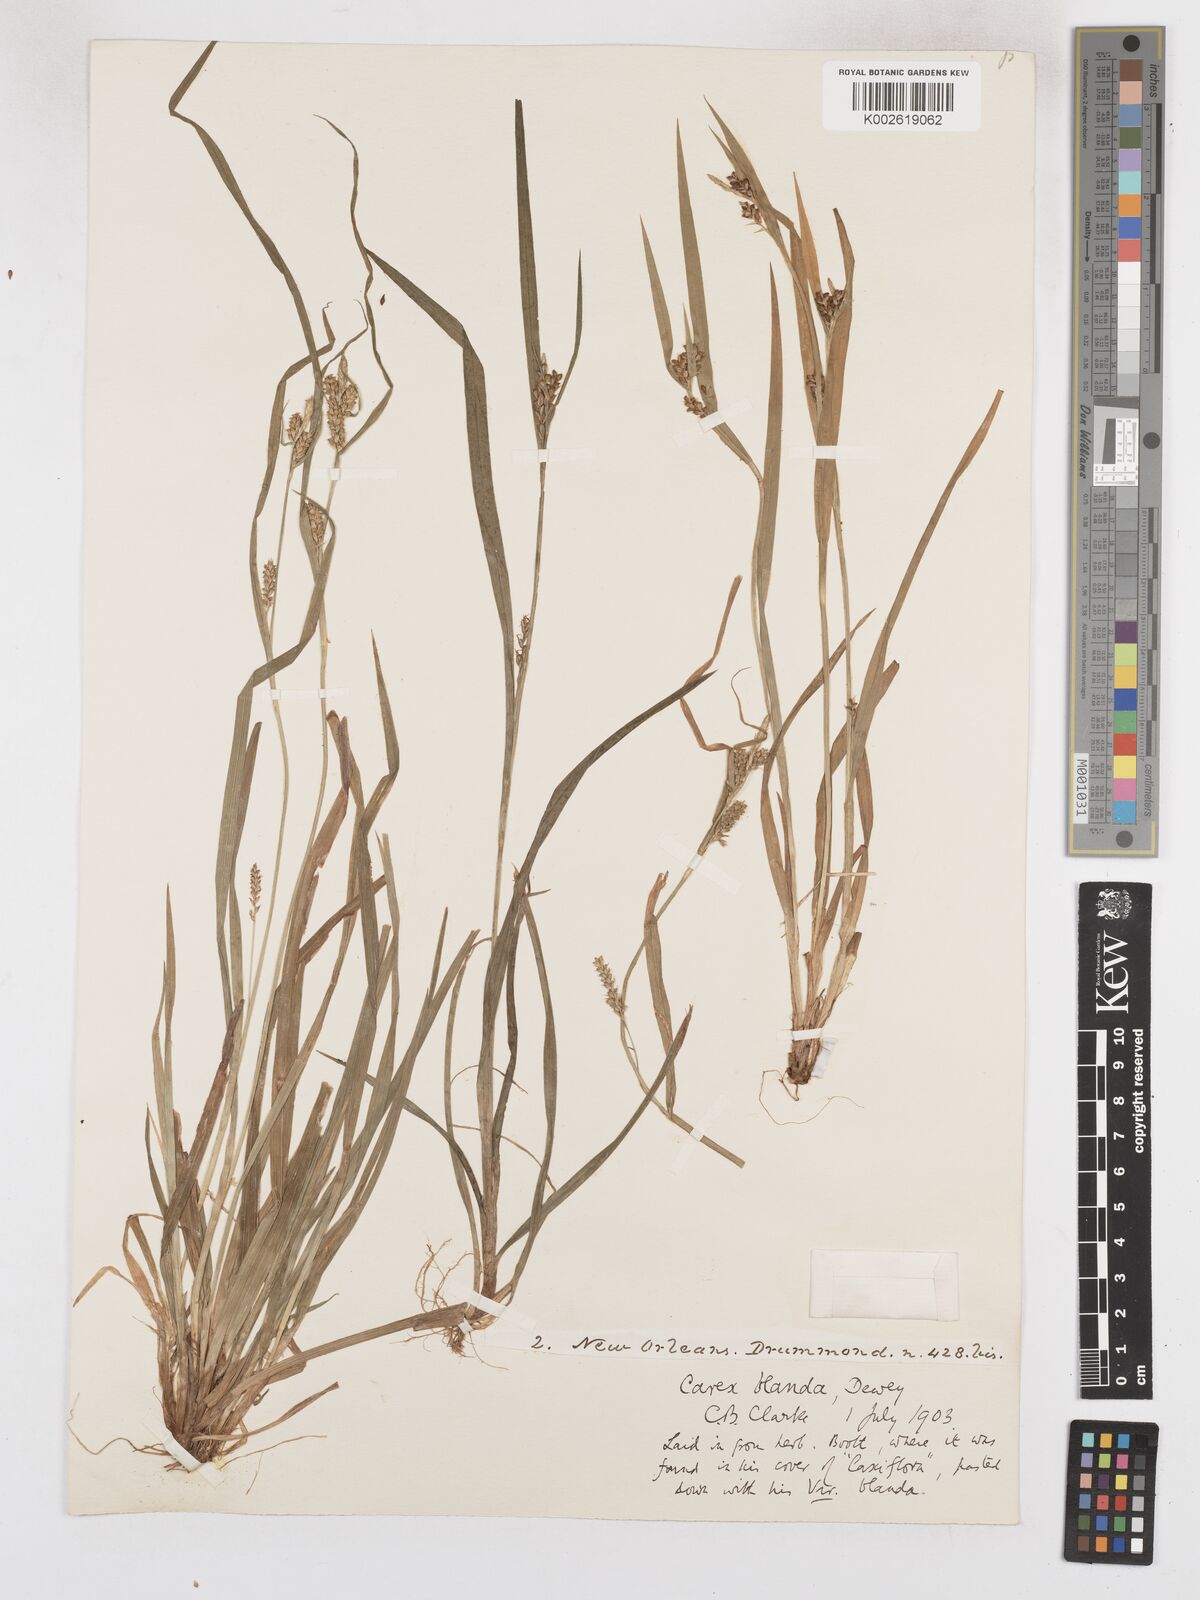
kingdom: Plantae
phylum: Tracheophyta
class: Liliopsida
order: Poales
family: Cyperaceae
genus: Carex
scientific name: Carex blanda
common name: Bland sedge
